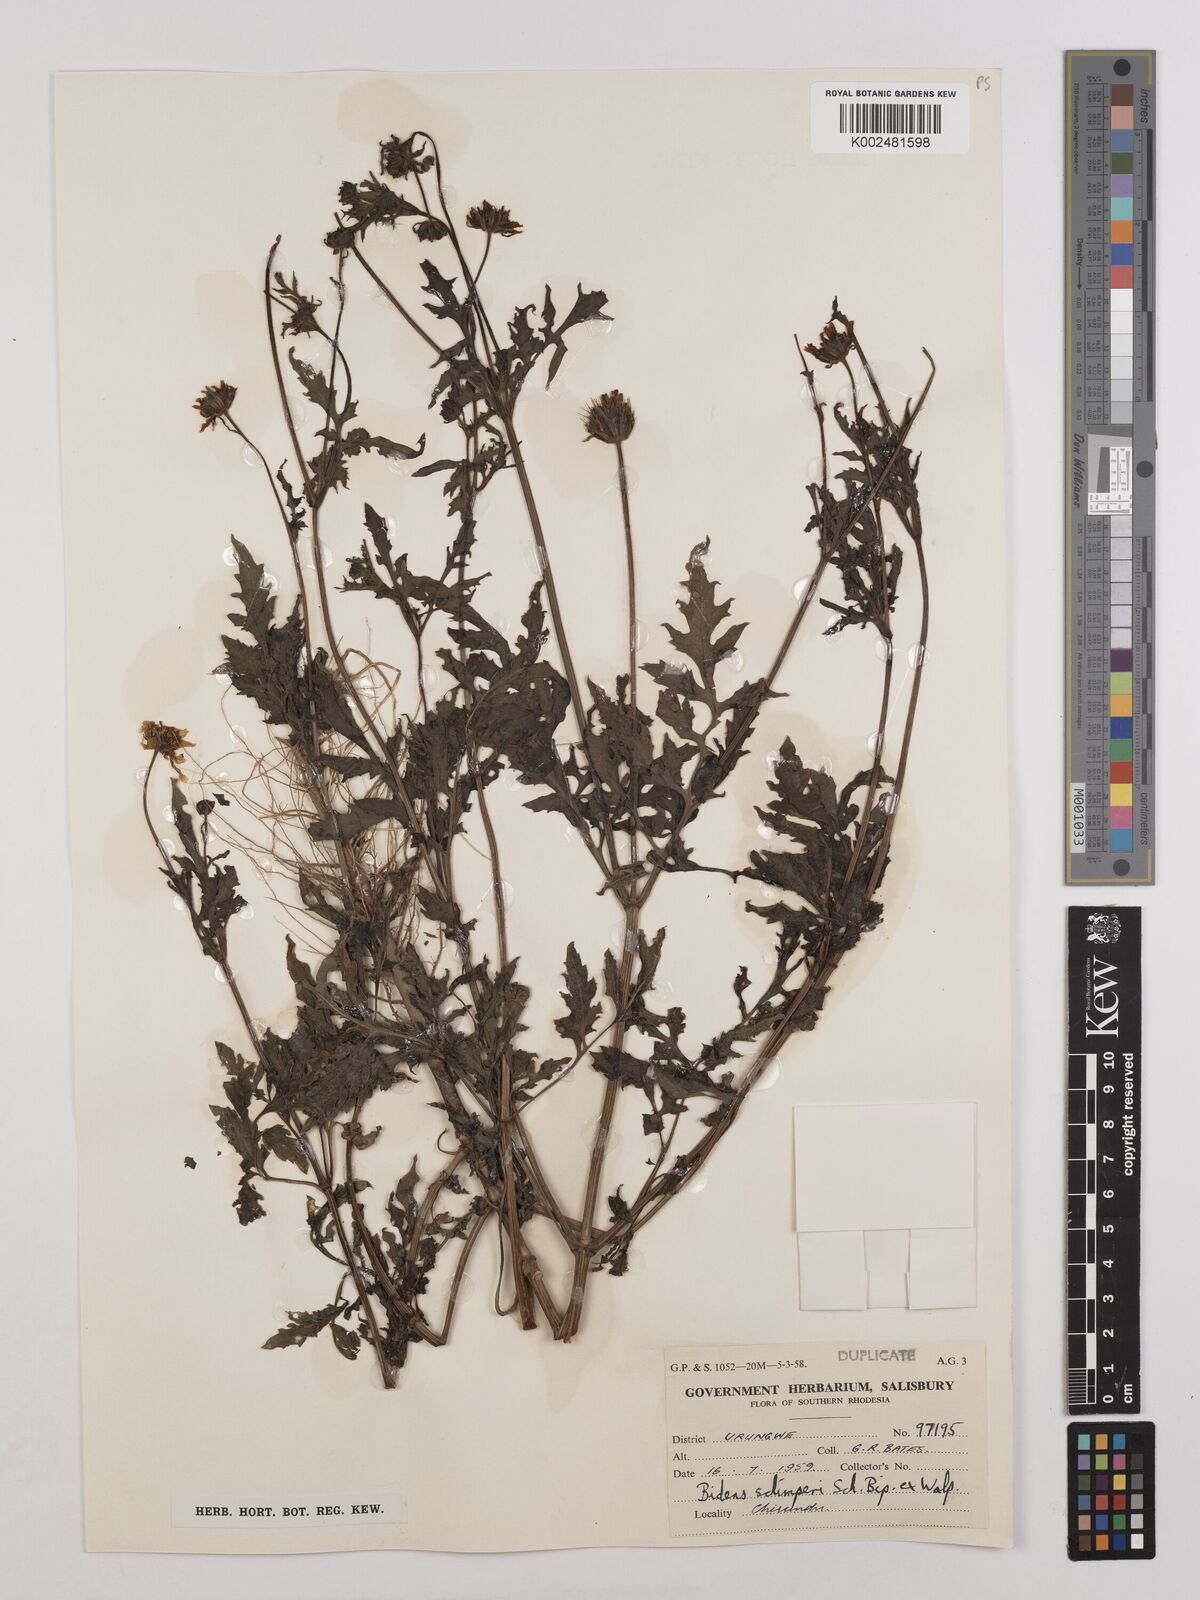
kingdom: Plantae
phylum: Tracheophyta
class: Magnoliopsida
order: Asterales
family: Asteraceae
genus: Bidens
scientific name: Bidens schimperi
